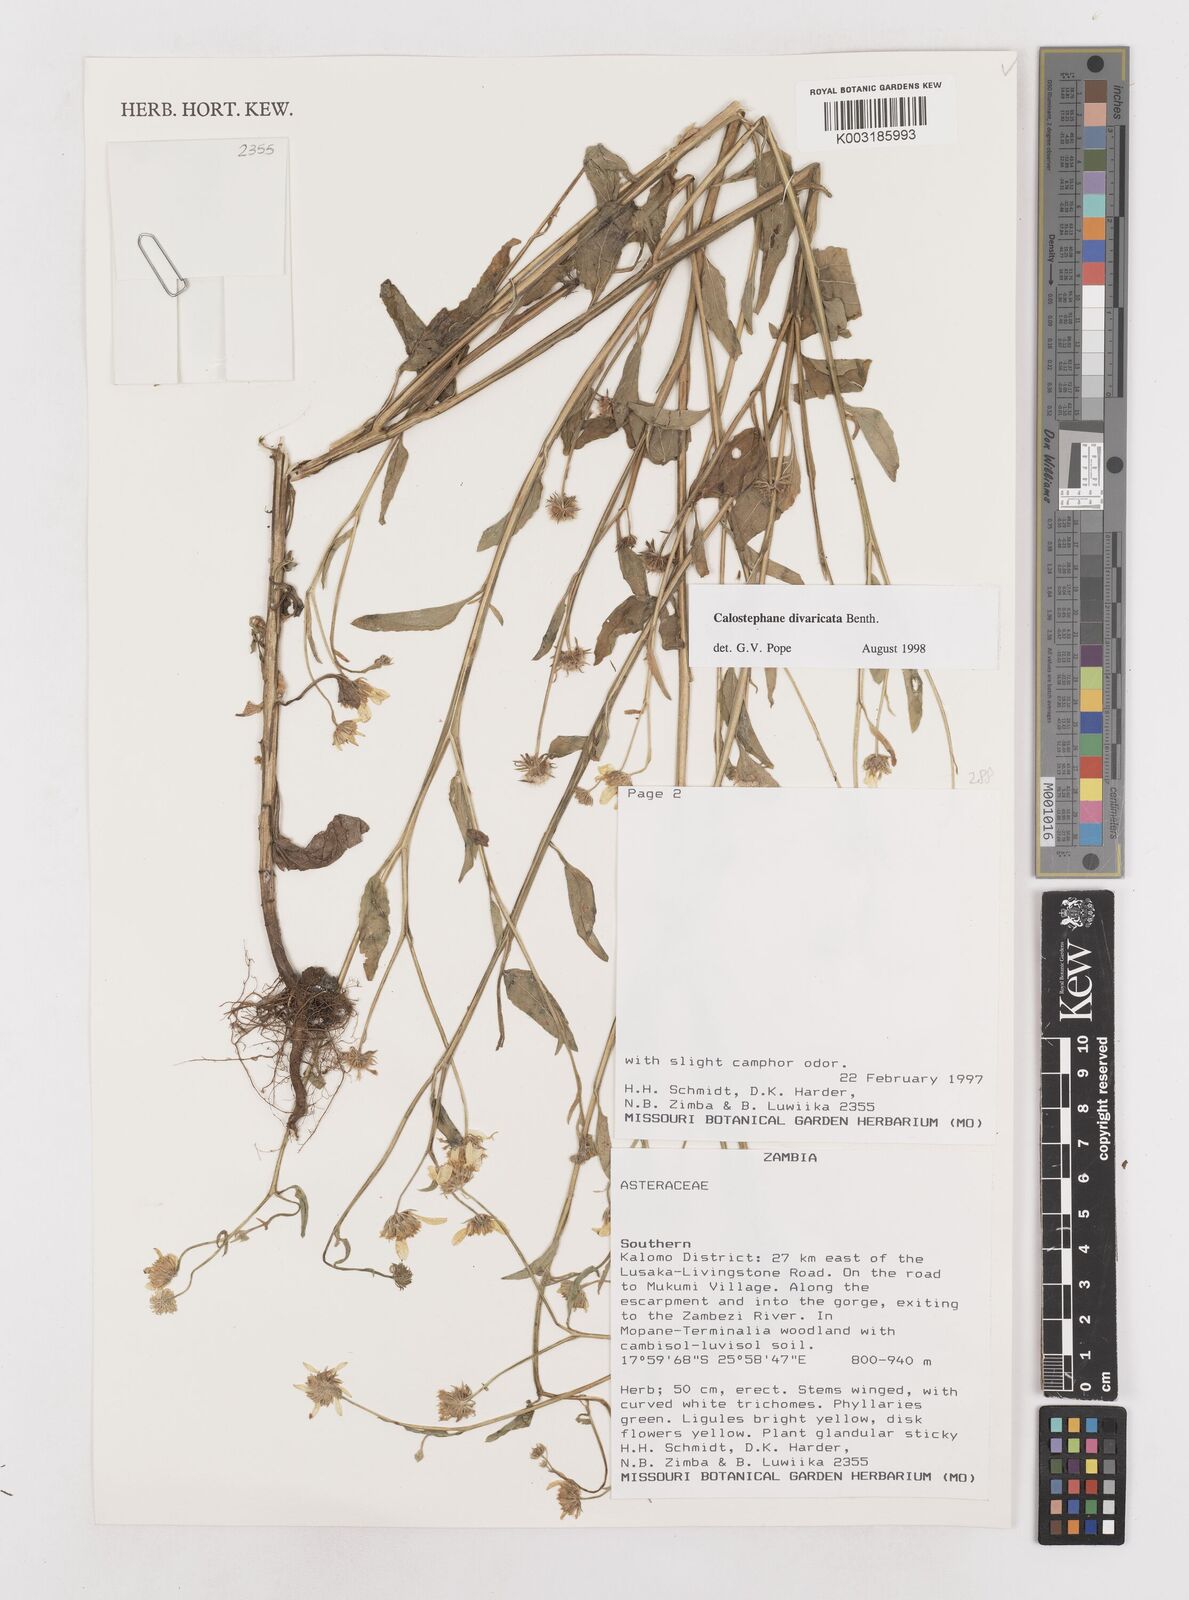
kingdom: Plantae
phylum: Tracheophyta
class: Magnoliopsida
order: Asterales
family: Asteraceae
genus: Calostephane
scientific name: Calostephane divaricata
